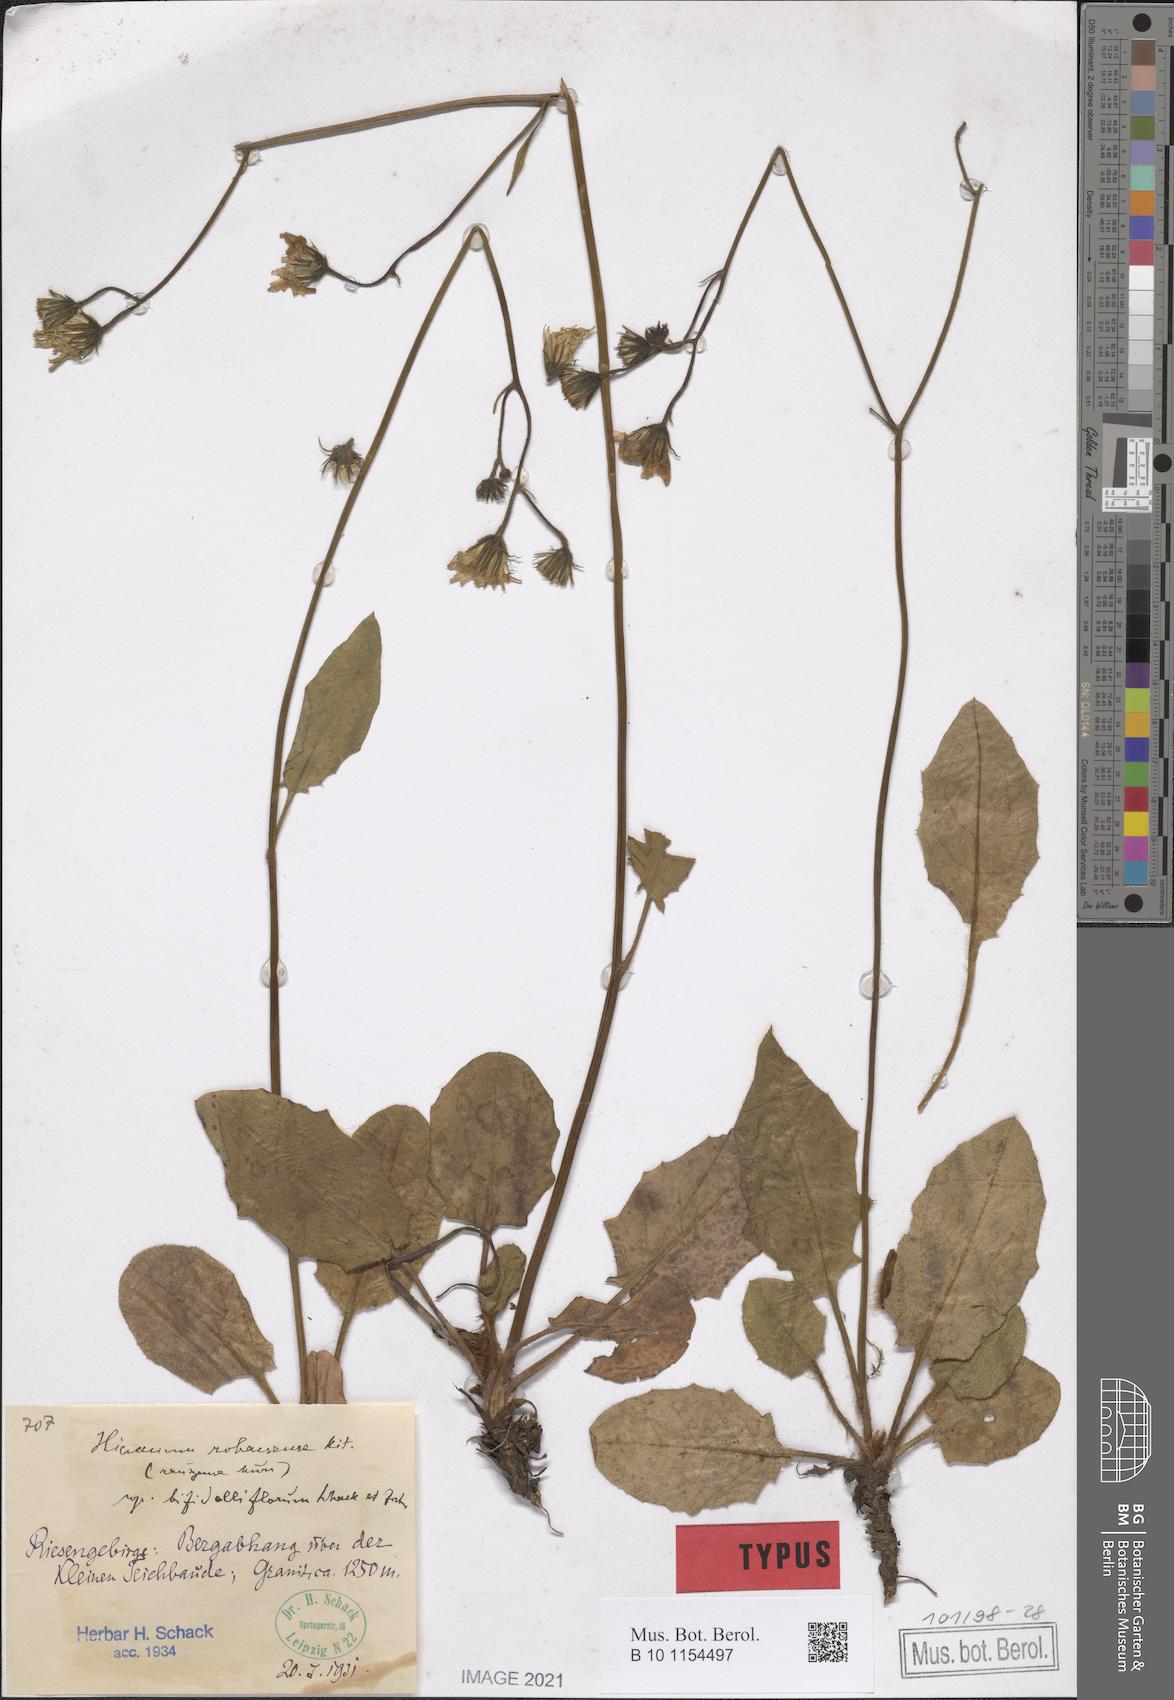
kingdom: Plantae
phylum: Tracheophyta
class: Magnoliopsida
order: Asterales
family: Asteraceae
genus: Hieracium
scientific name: Hieracium rohacsense
